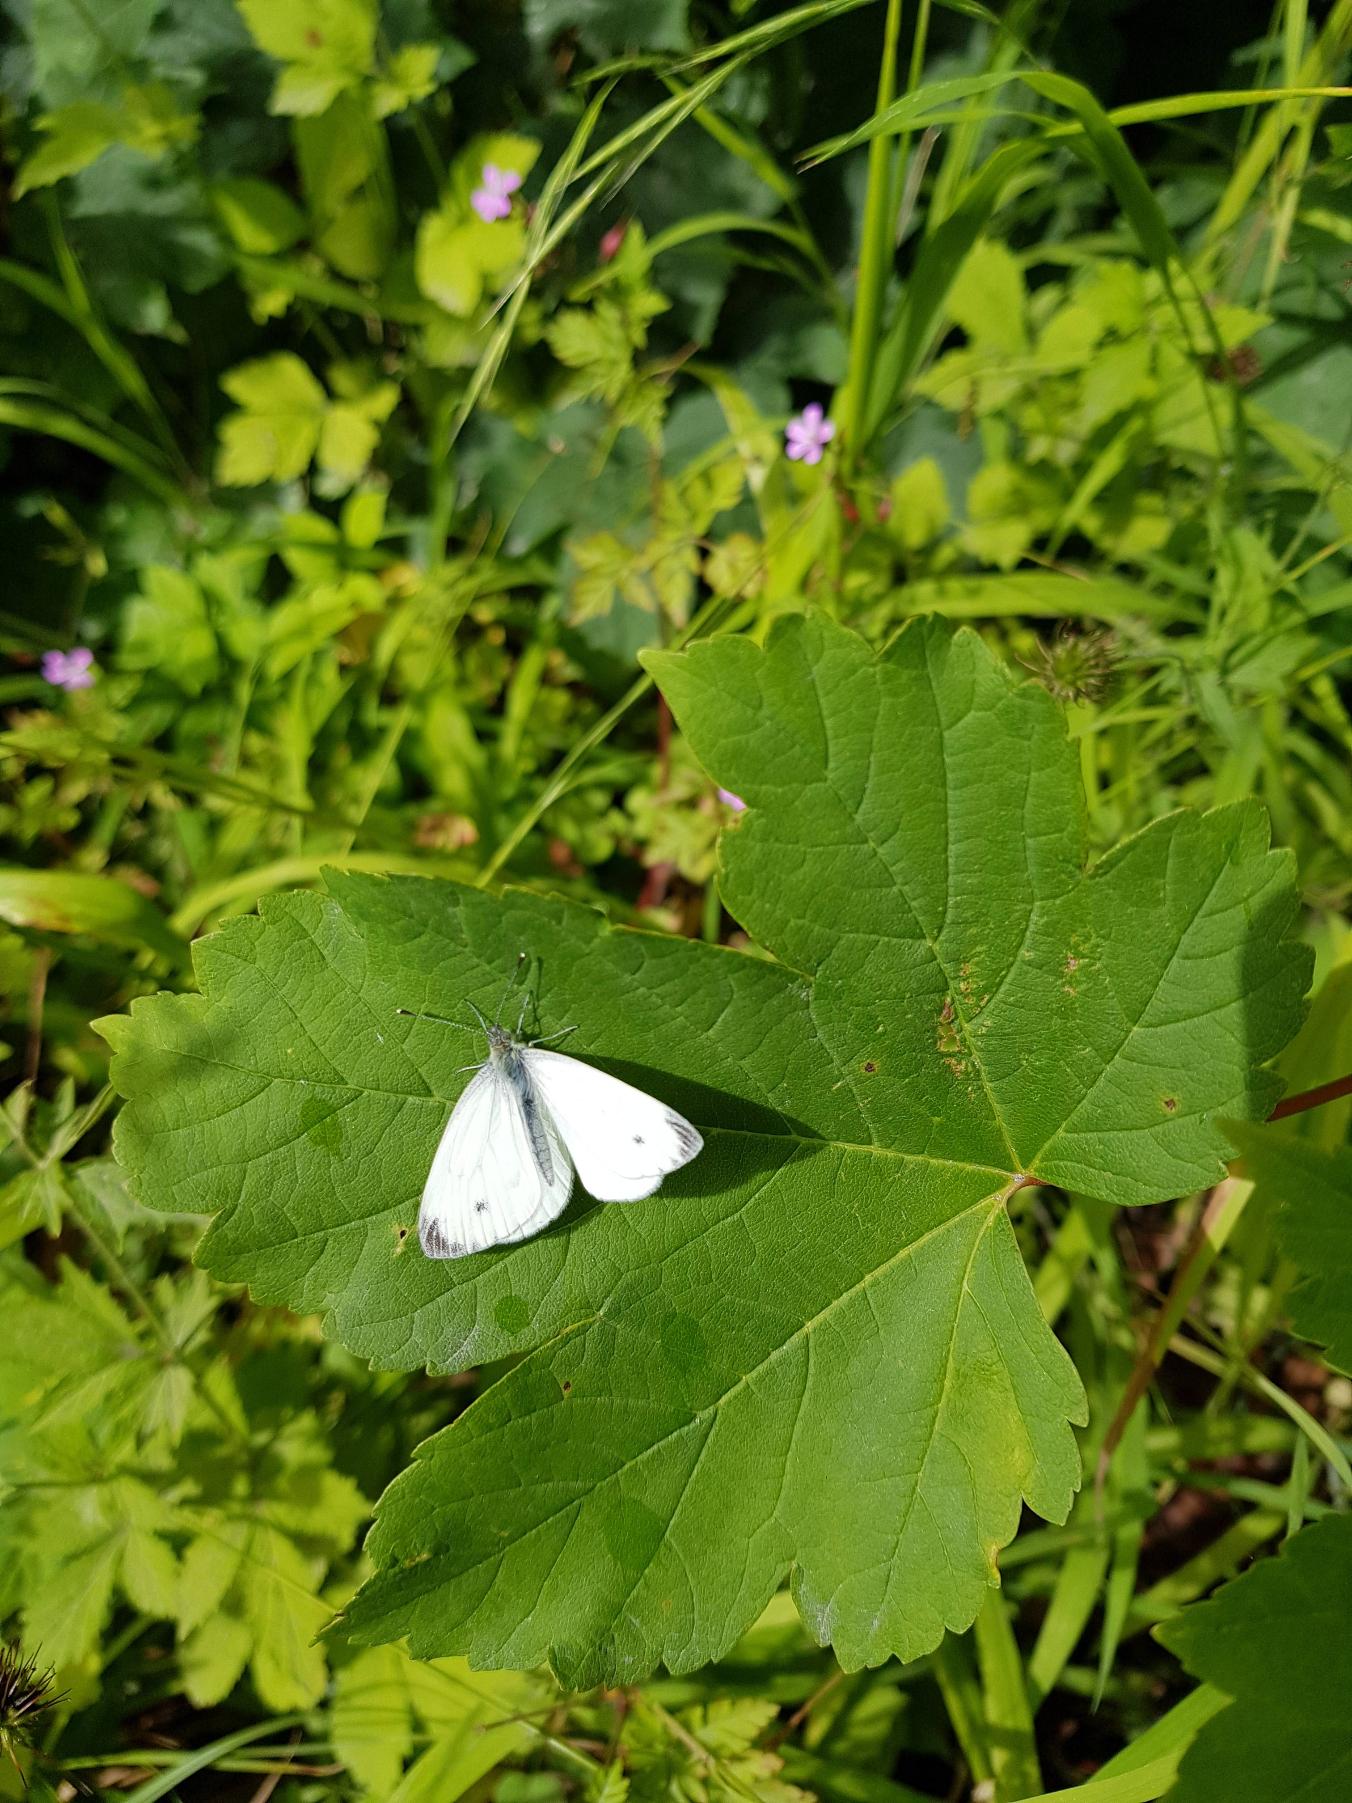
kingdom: Animalia
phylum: Arthropoda
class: Insecta
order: Lepidoptera
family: Pieridae
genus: Pieris
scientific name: Pieris napi
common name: Grønåret kålsommerfugl
